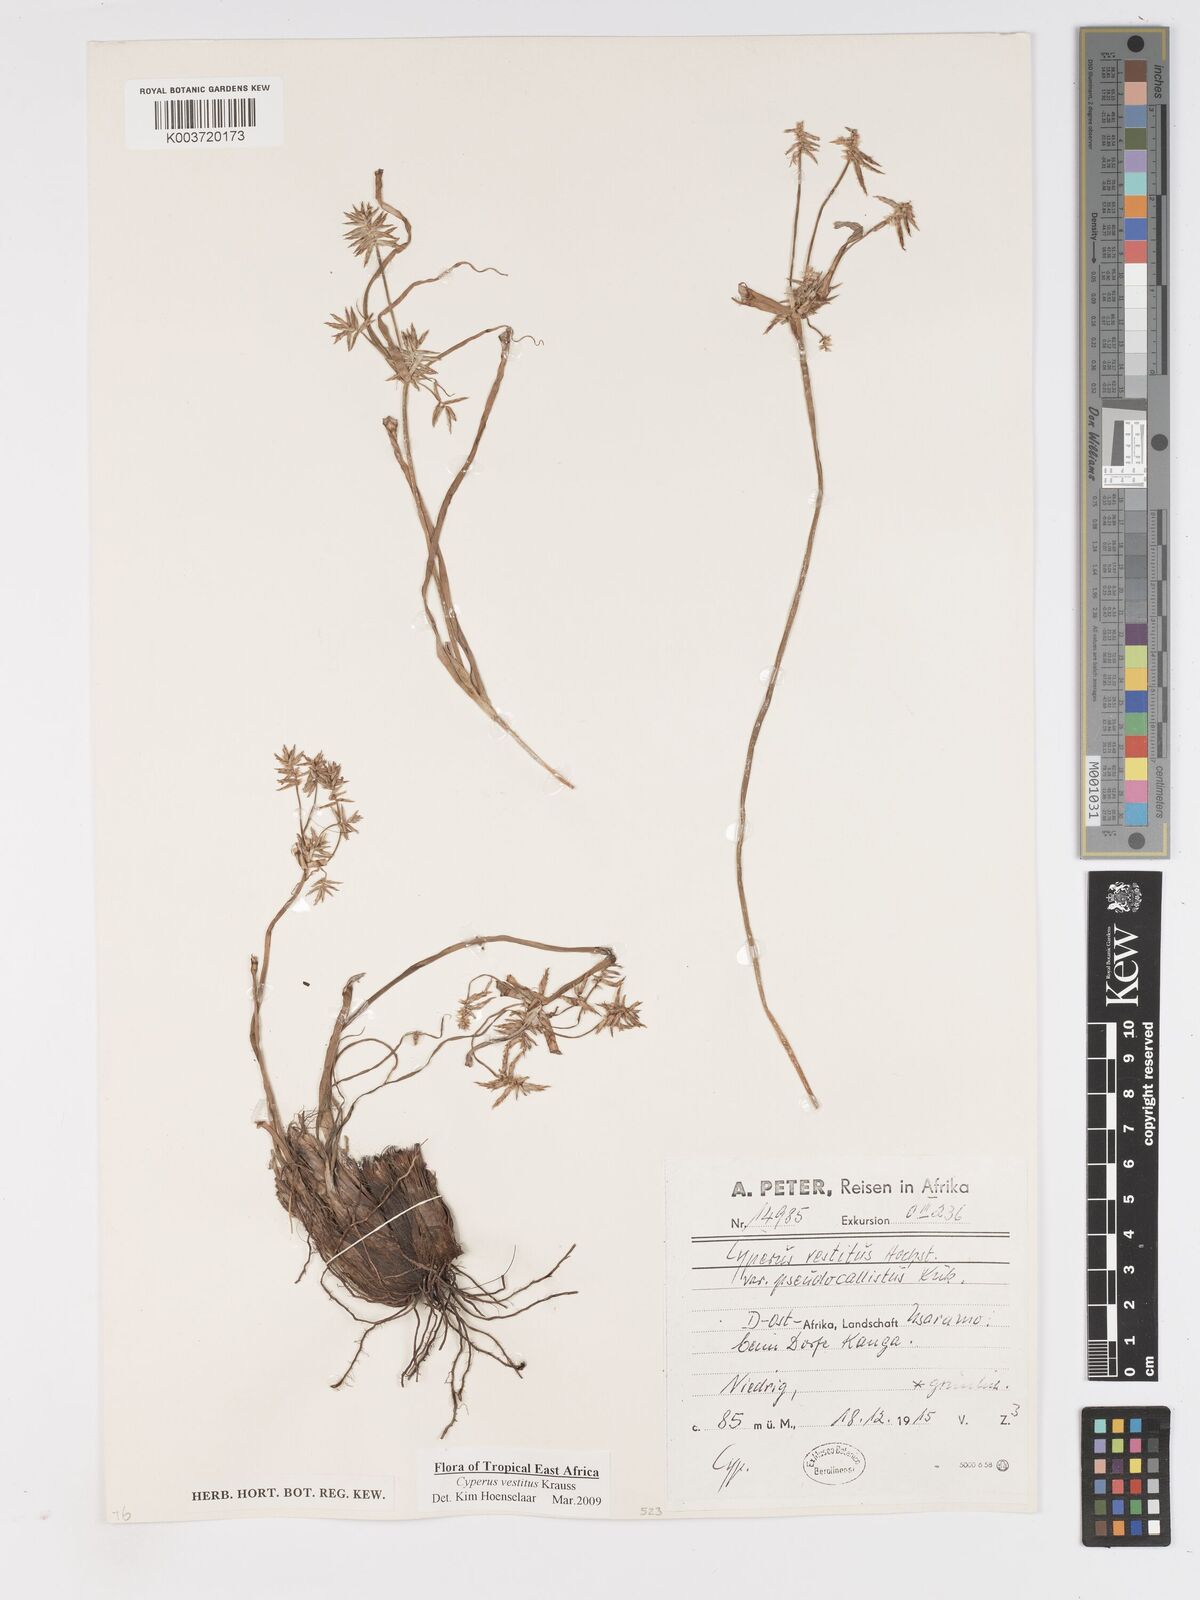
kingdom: Plantae
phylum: Tracheophyta
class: Liliopsida
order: Poales
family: Cyperaceae
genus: Cyperus
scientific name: Cyperus vestitus
